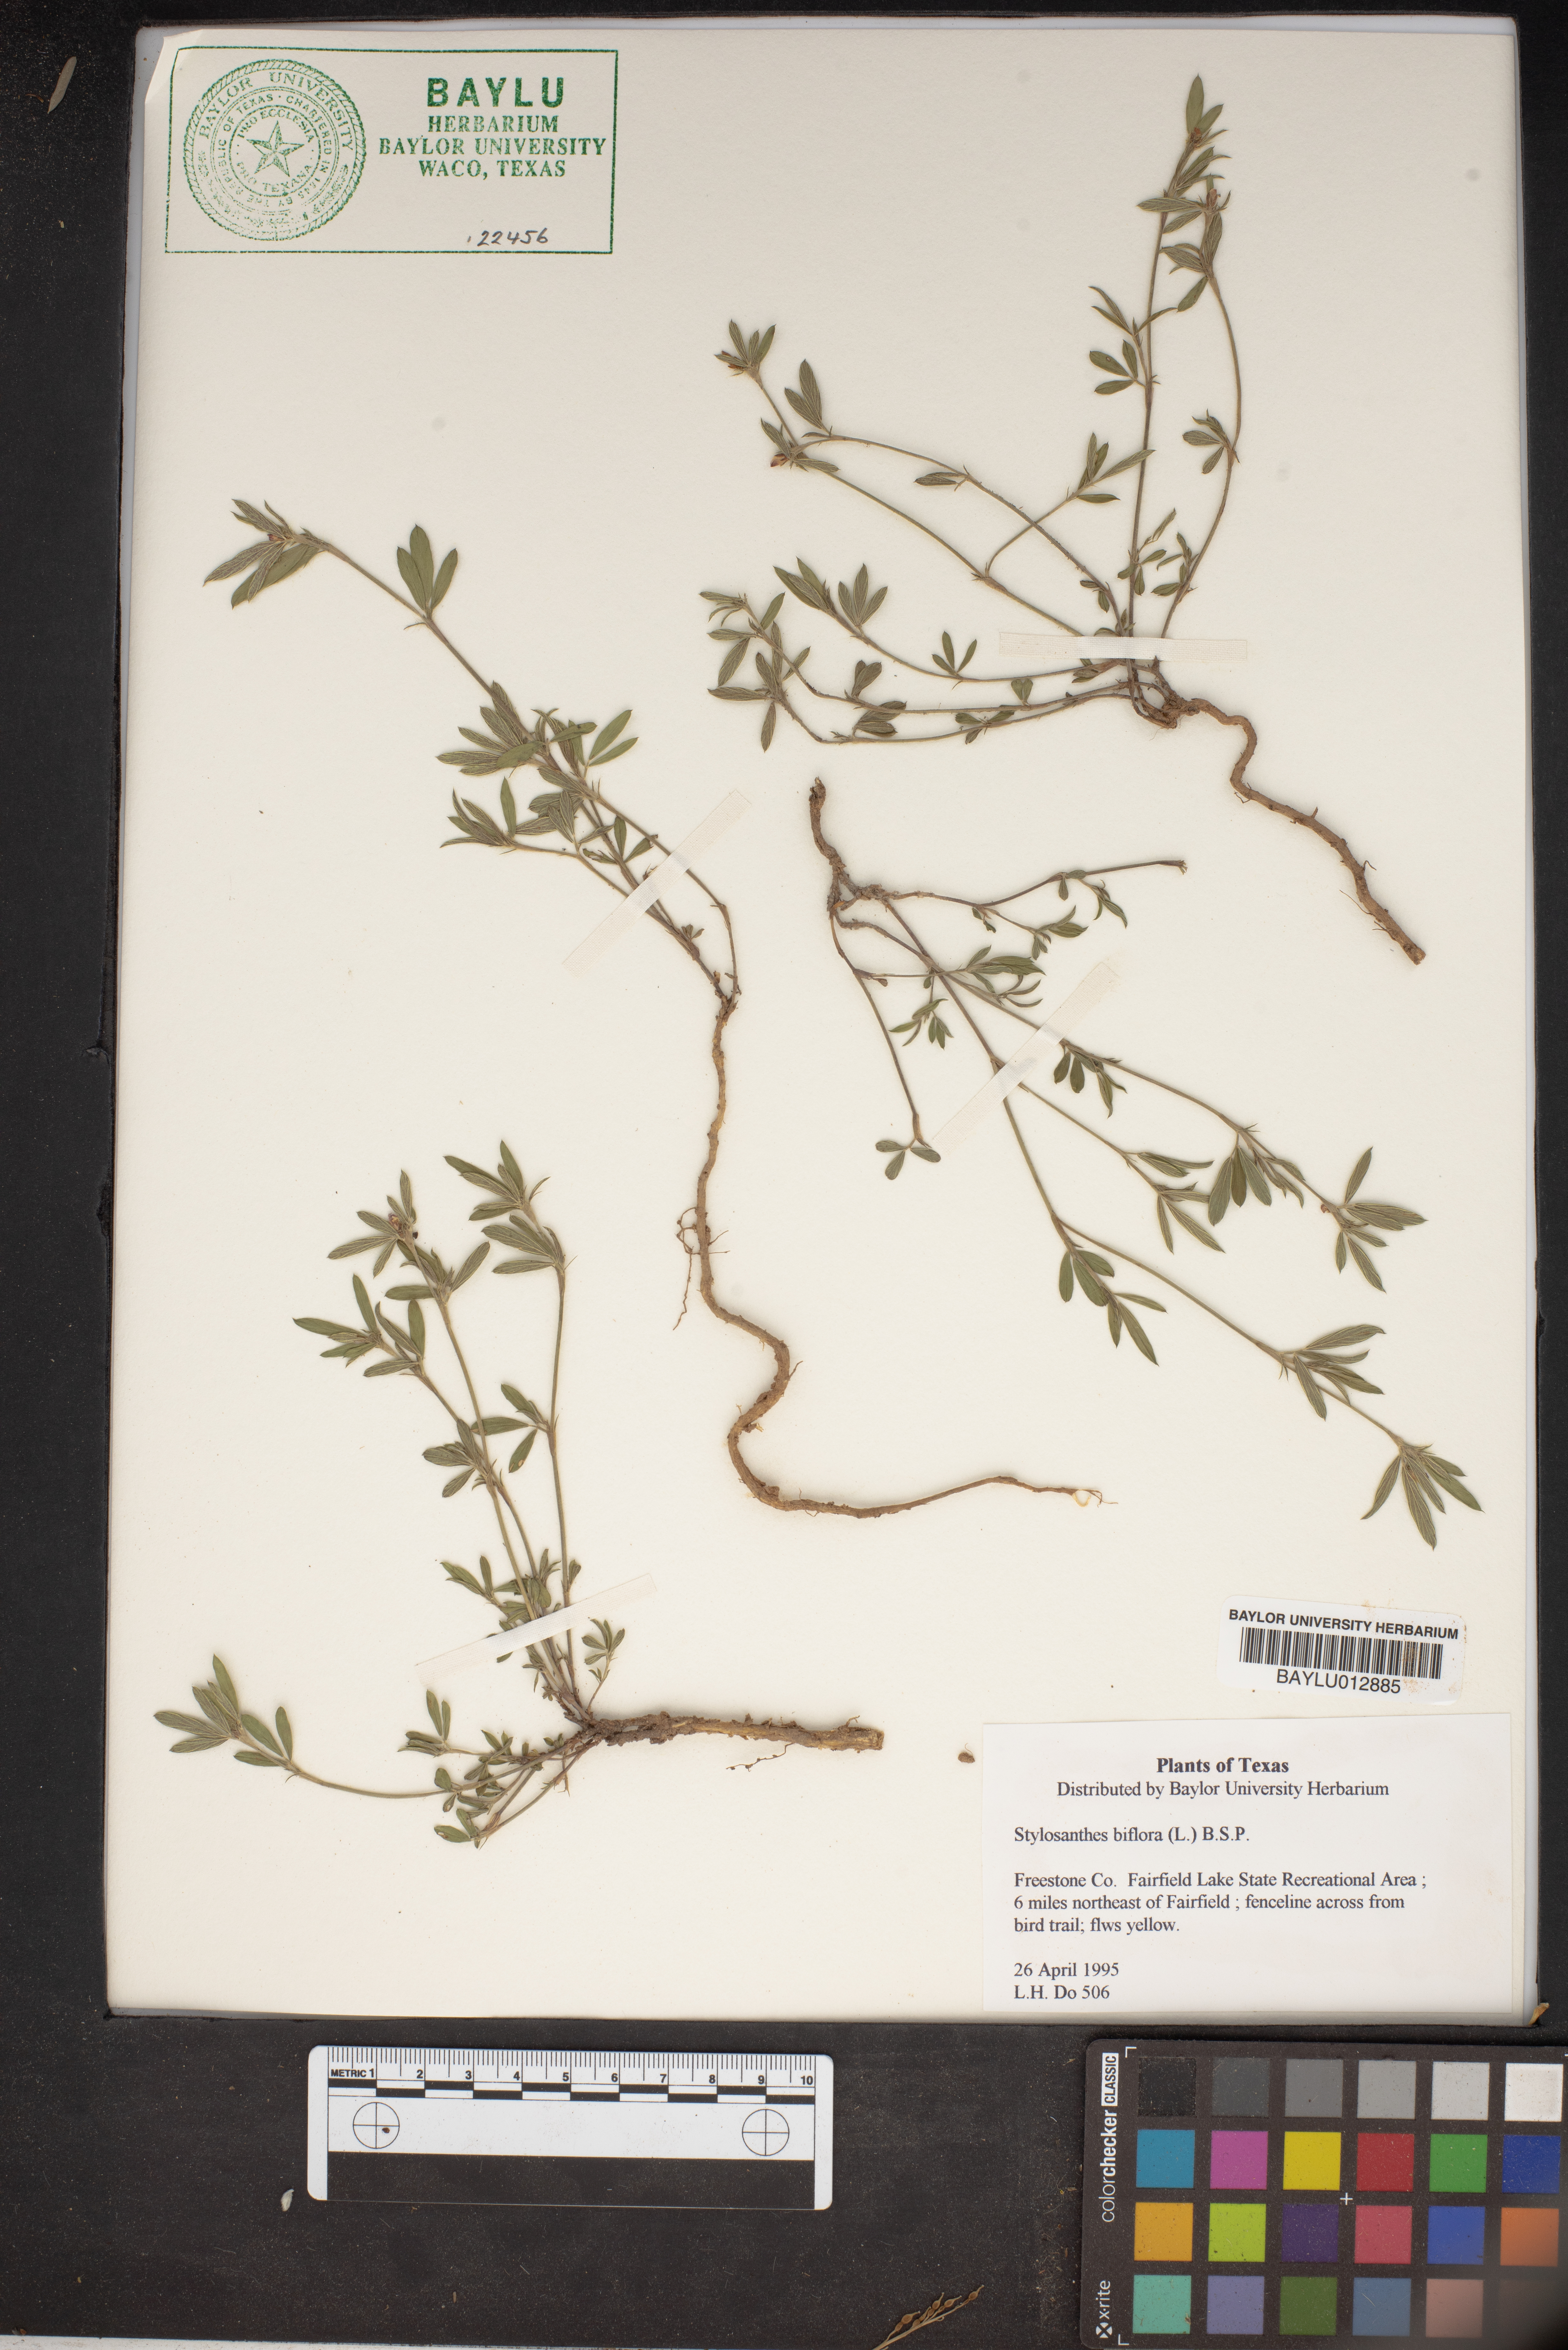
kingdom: Plantae
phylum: Tracheophyta
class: Magnoliopsida
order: Fabales
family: Fabaceae
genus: Stylosanthes
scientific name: Stylosanthes biflora
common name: Two-flower pencil-flower
